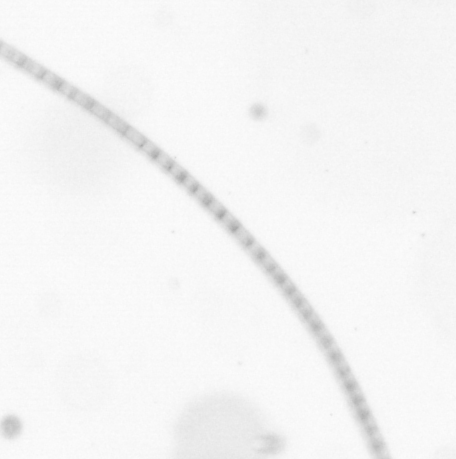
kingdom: Chromista
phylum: Ochrophyta
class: Bacillariophyceae
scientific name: Bacillariophyceae
